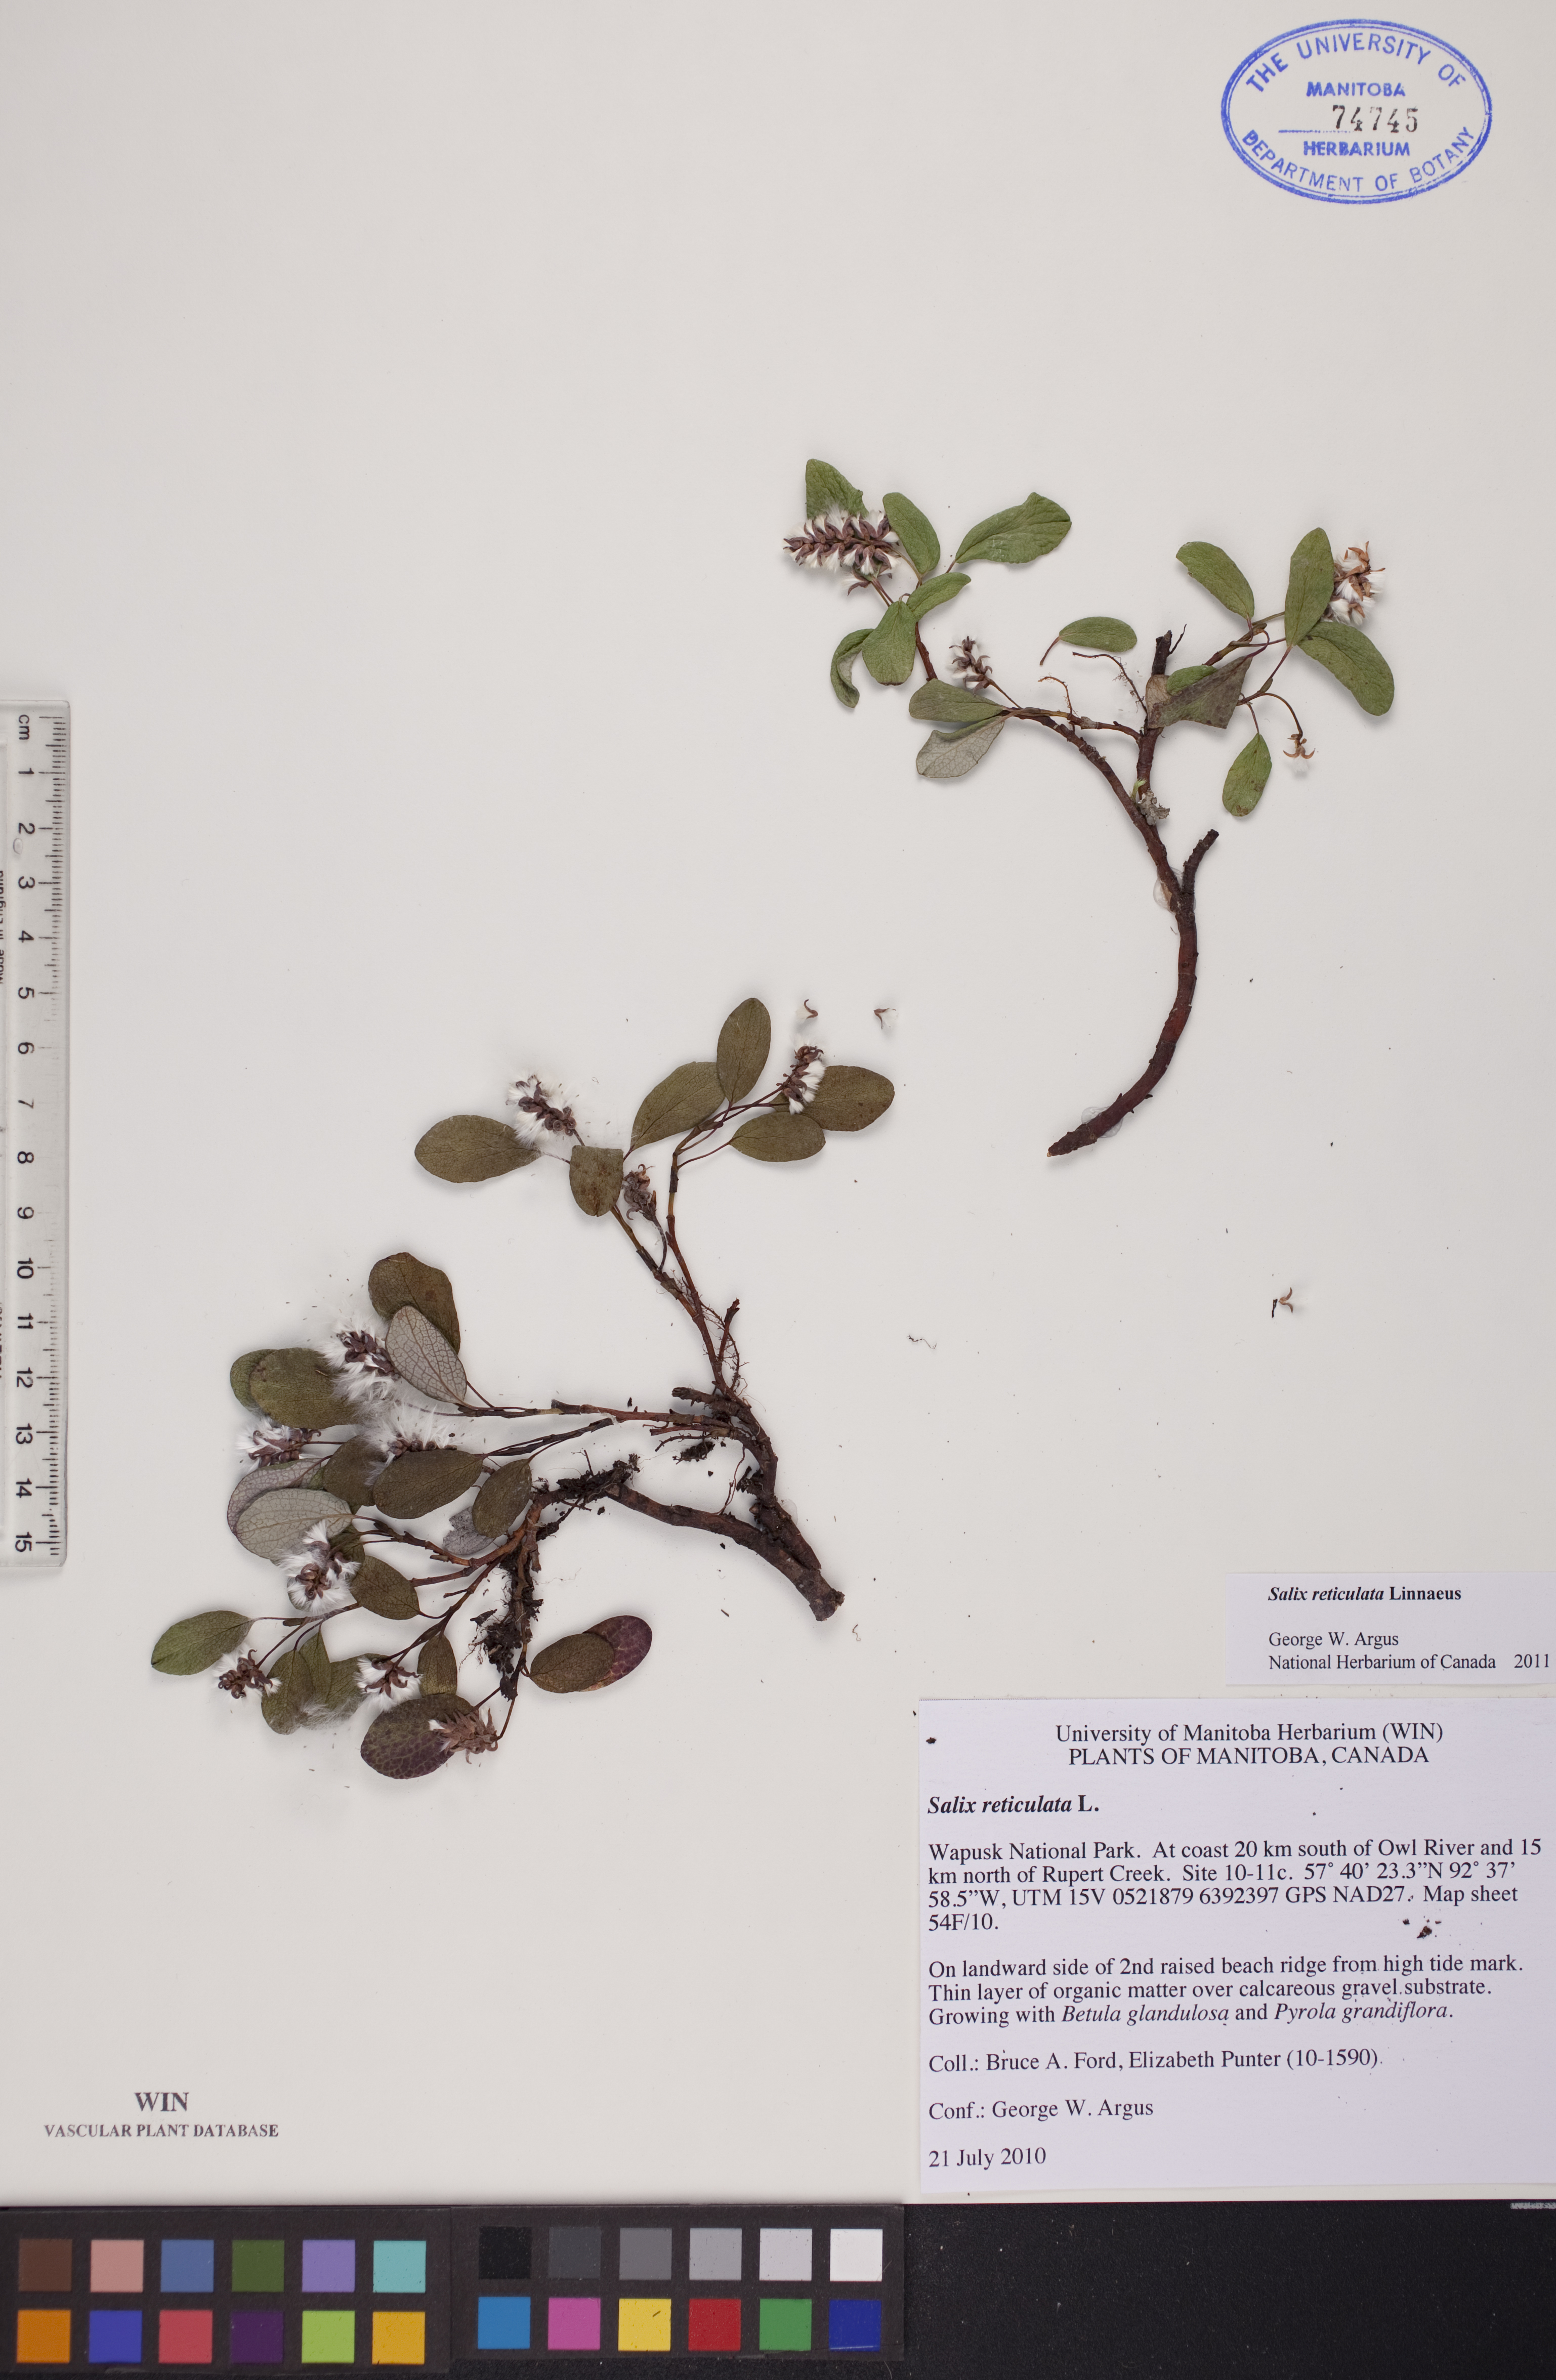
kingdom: Plantae
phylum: Tracheophyta
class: Magnoliopsida
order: Malpighiales
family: Salicaceae
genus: Salix
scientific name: Salix reticulata
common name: Net-leaved willow
